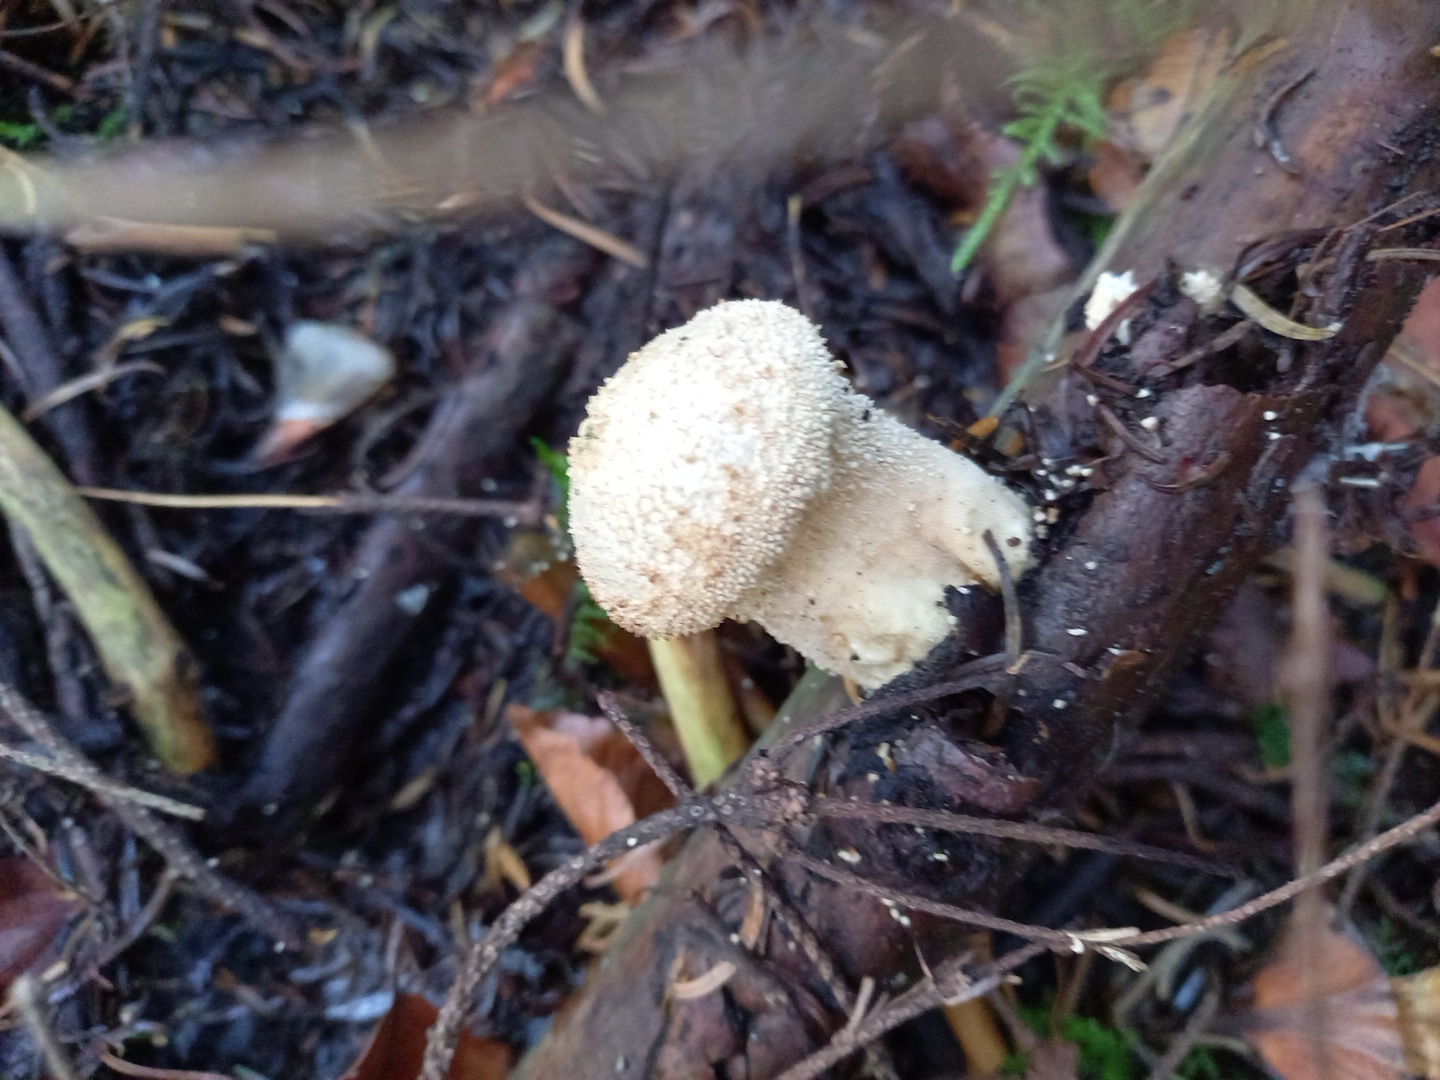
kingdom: Fungi
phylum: Basidiomycota
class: Agaricomycetes
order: Agaricales
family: Lycoperdaceae
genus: Lycoperdon
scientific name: Lycoperdon perlatum
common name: krystal-støvbold
